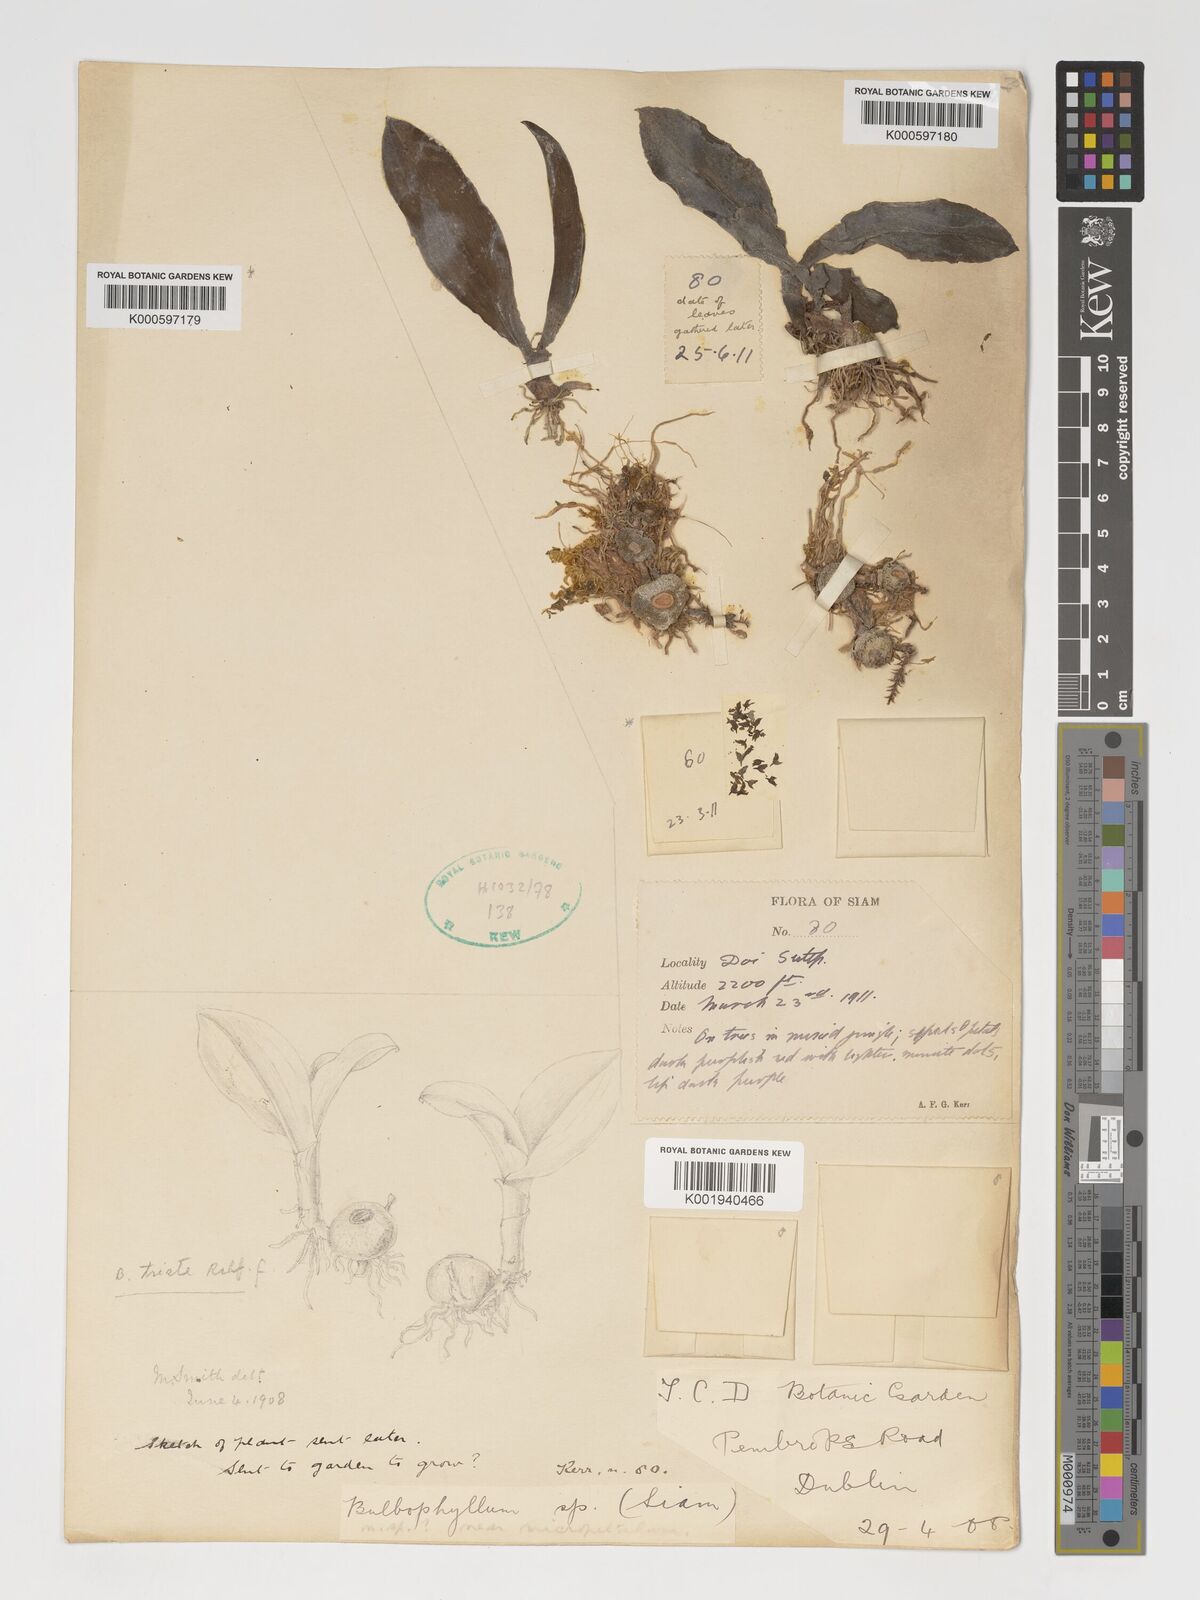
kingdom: Plantae
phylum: Tracheophyta
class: Liliopsida
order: Asparagales
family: Orchidaceae
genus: Bulbophyllum
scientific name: Bulbophyllum triste
